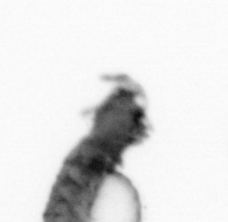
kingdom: Animalia
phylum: Annelida
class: Polychaeta
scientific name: Polychaeta
